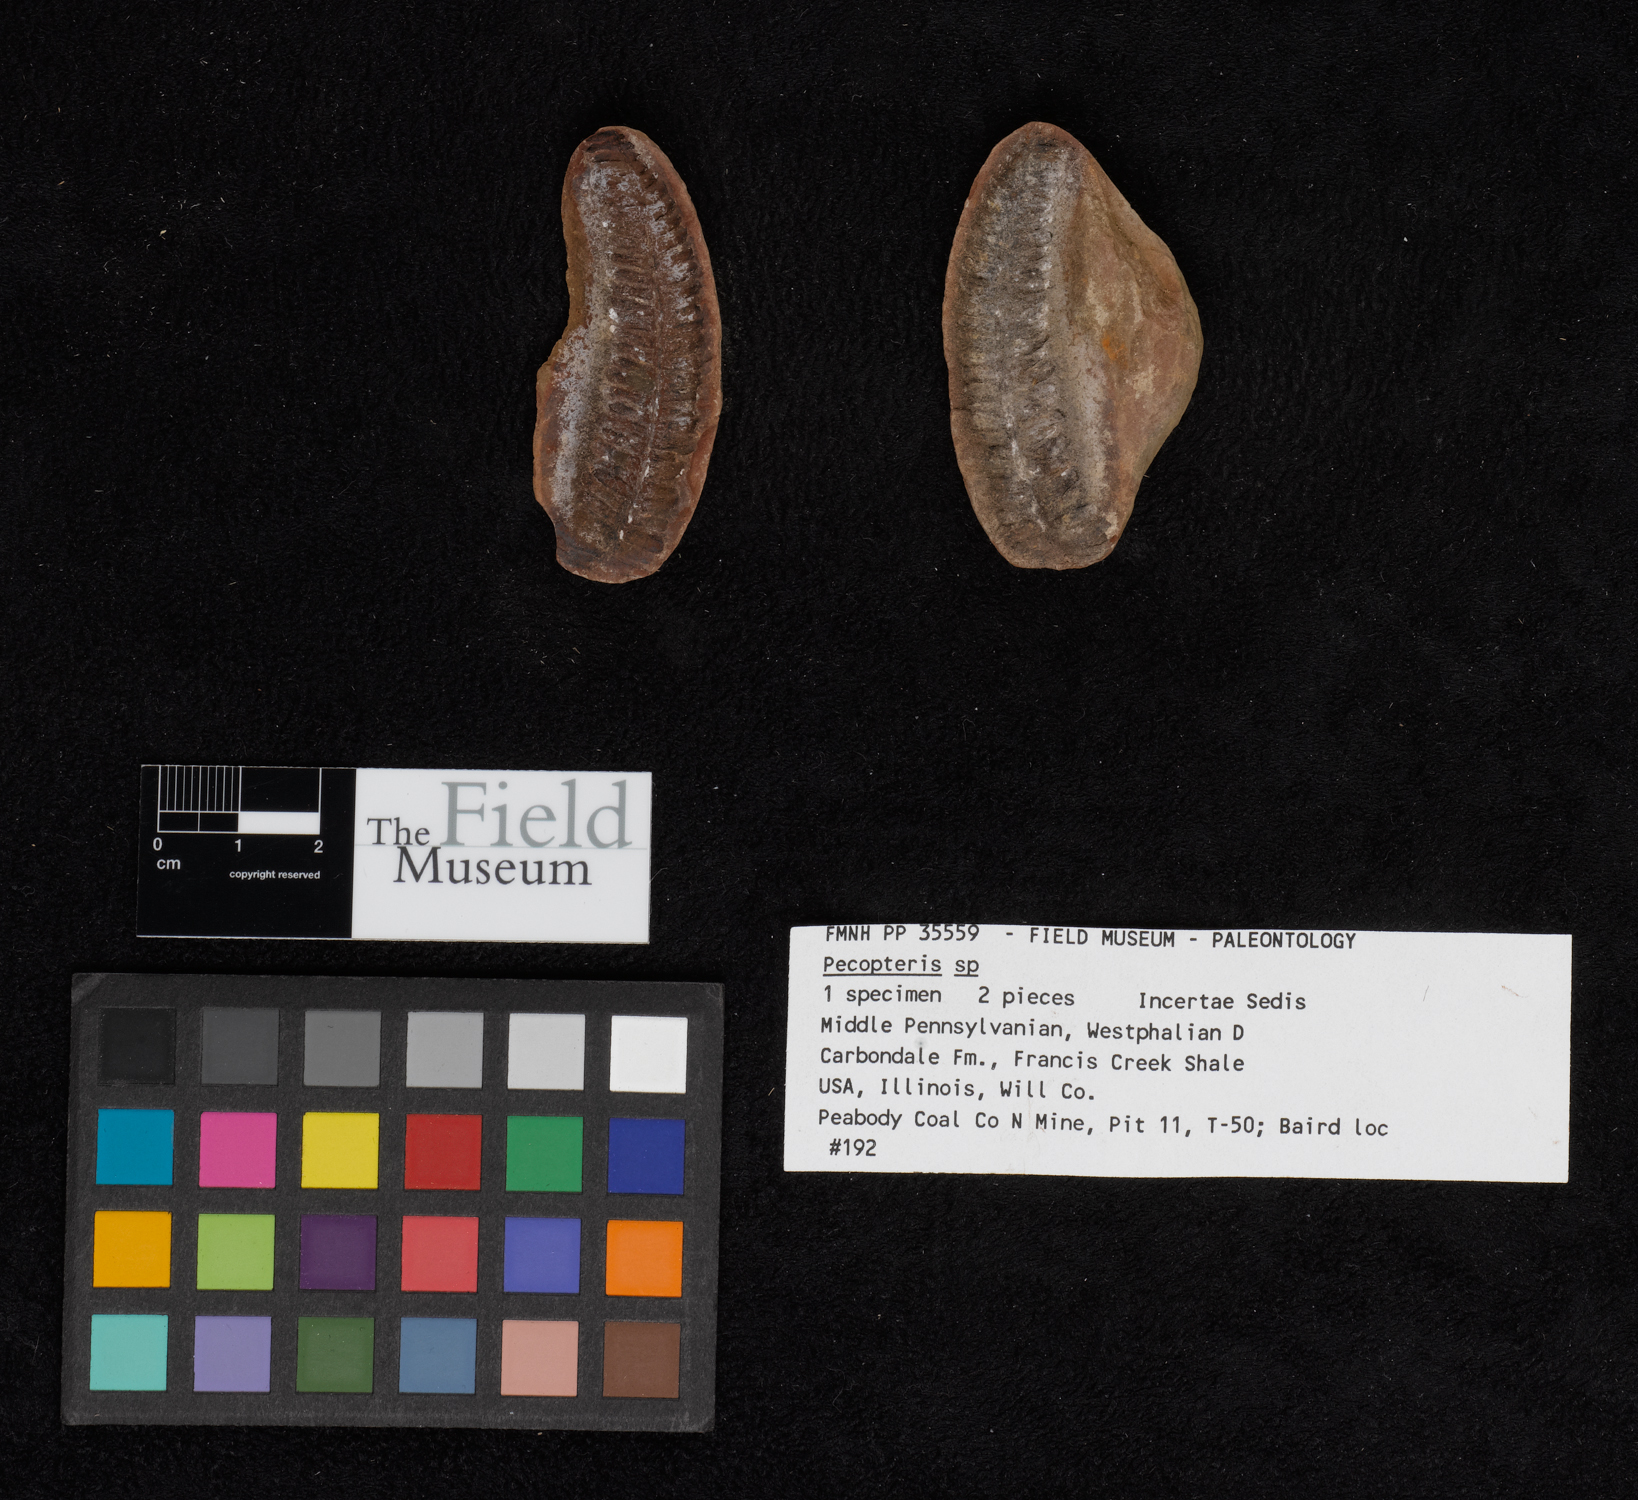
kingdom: Plantae
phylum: Tracheophyta
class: Polypodiopsida
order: Marattiales
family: Asterothecaceae
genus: Pecopteris
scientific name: Pecopteris
